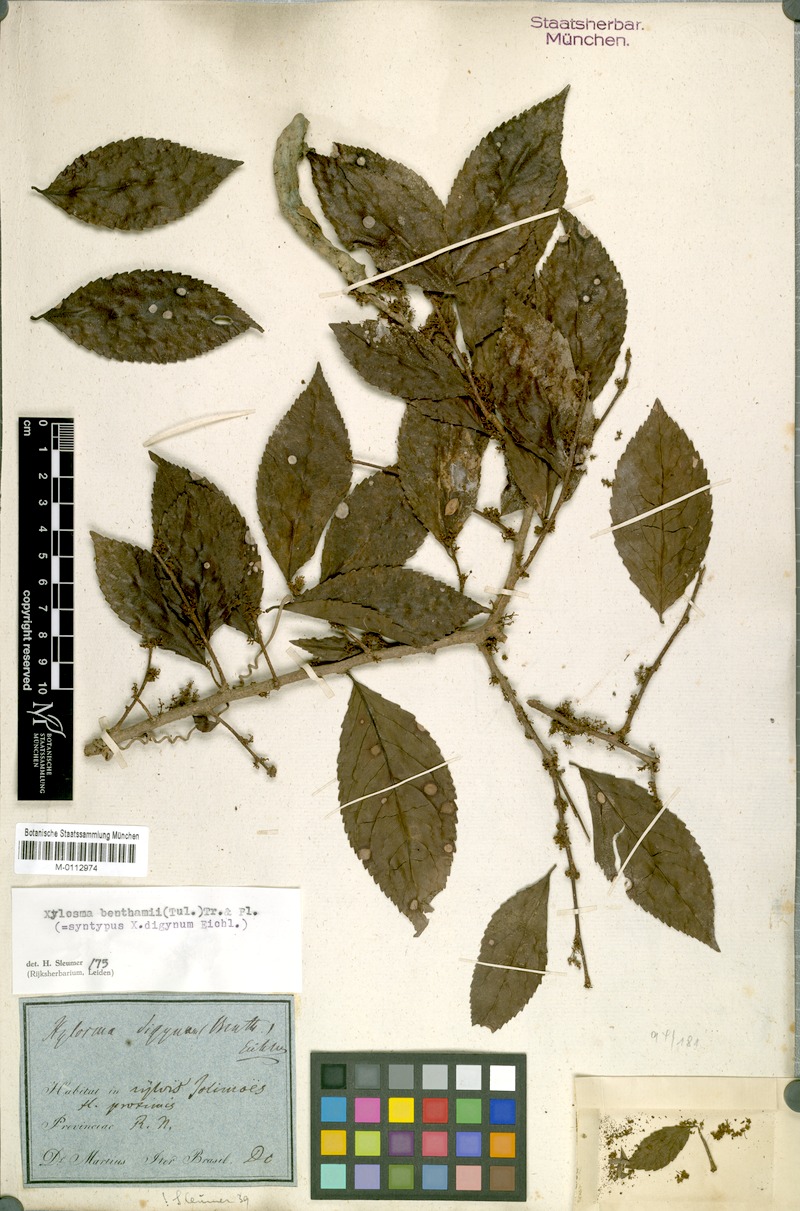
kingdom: Plantae
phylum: Tracheophyta
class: Magnoliopsida
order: Malpighiales
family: Salicaceae
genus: Xylosma
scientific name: Xylosma benthamii
